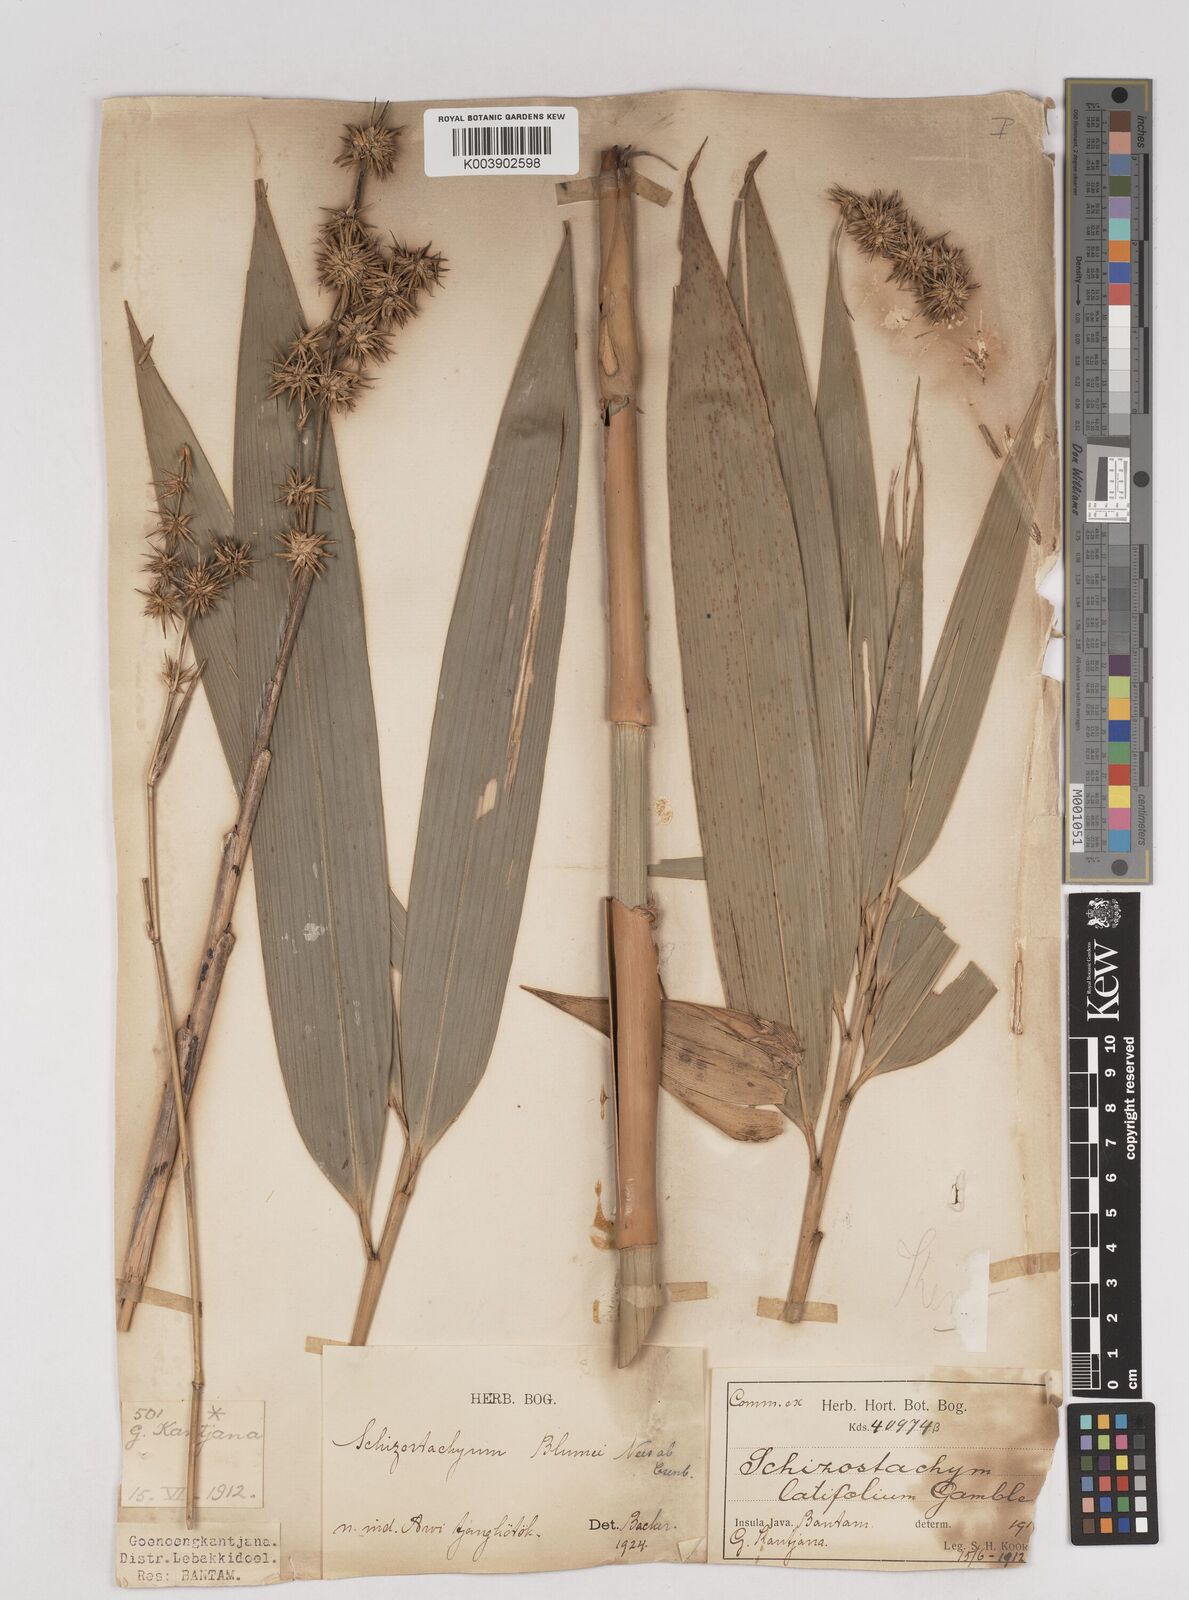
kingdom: Plantae
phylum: Tracheophyta
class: Liliopsida
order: Poales
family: Poaceae
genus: Schizostachyum
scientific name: Schizostachyum
